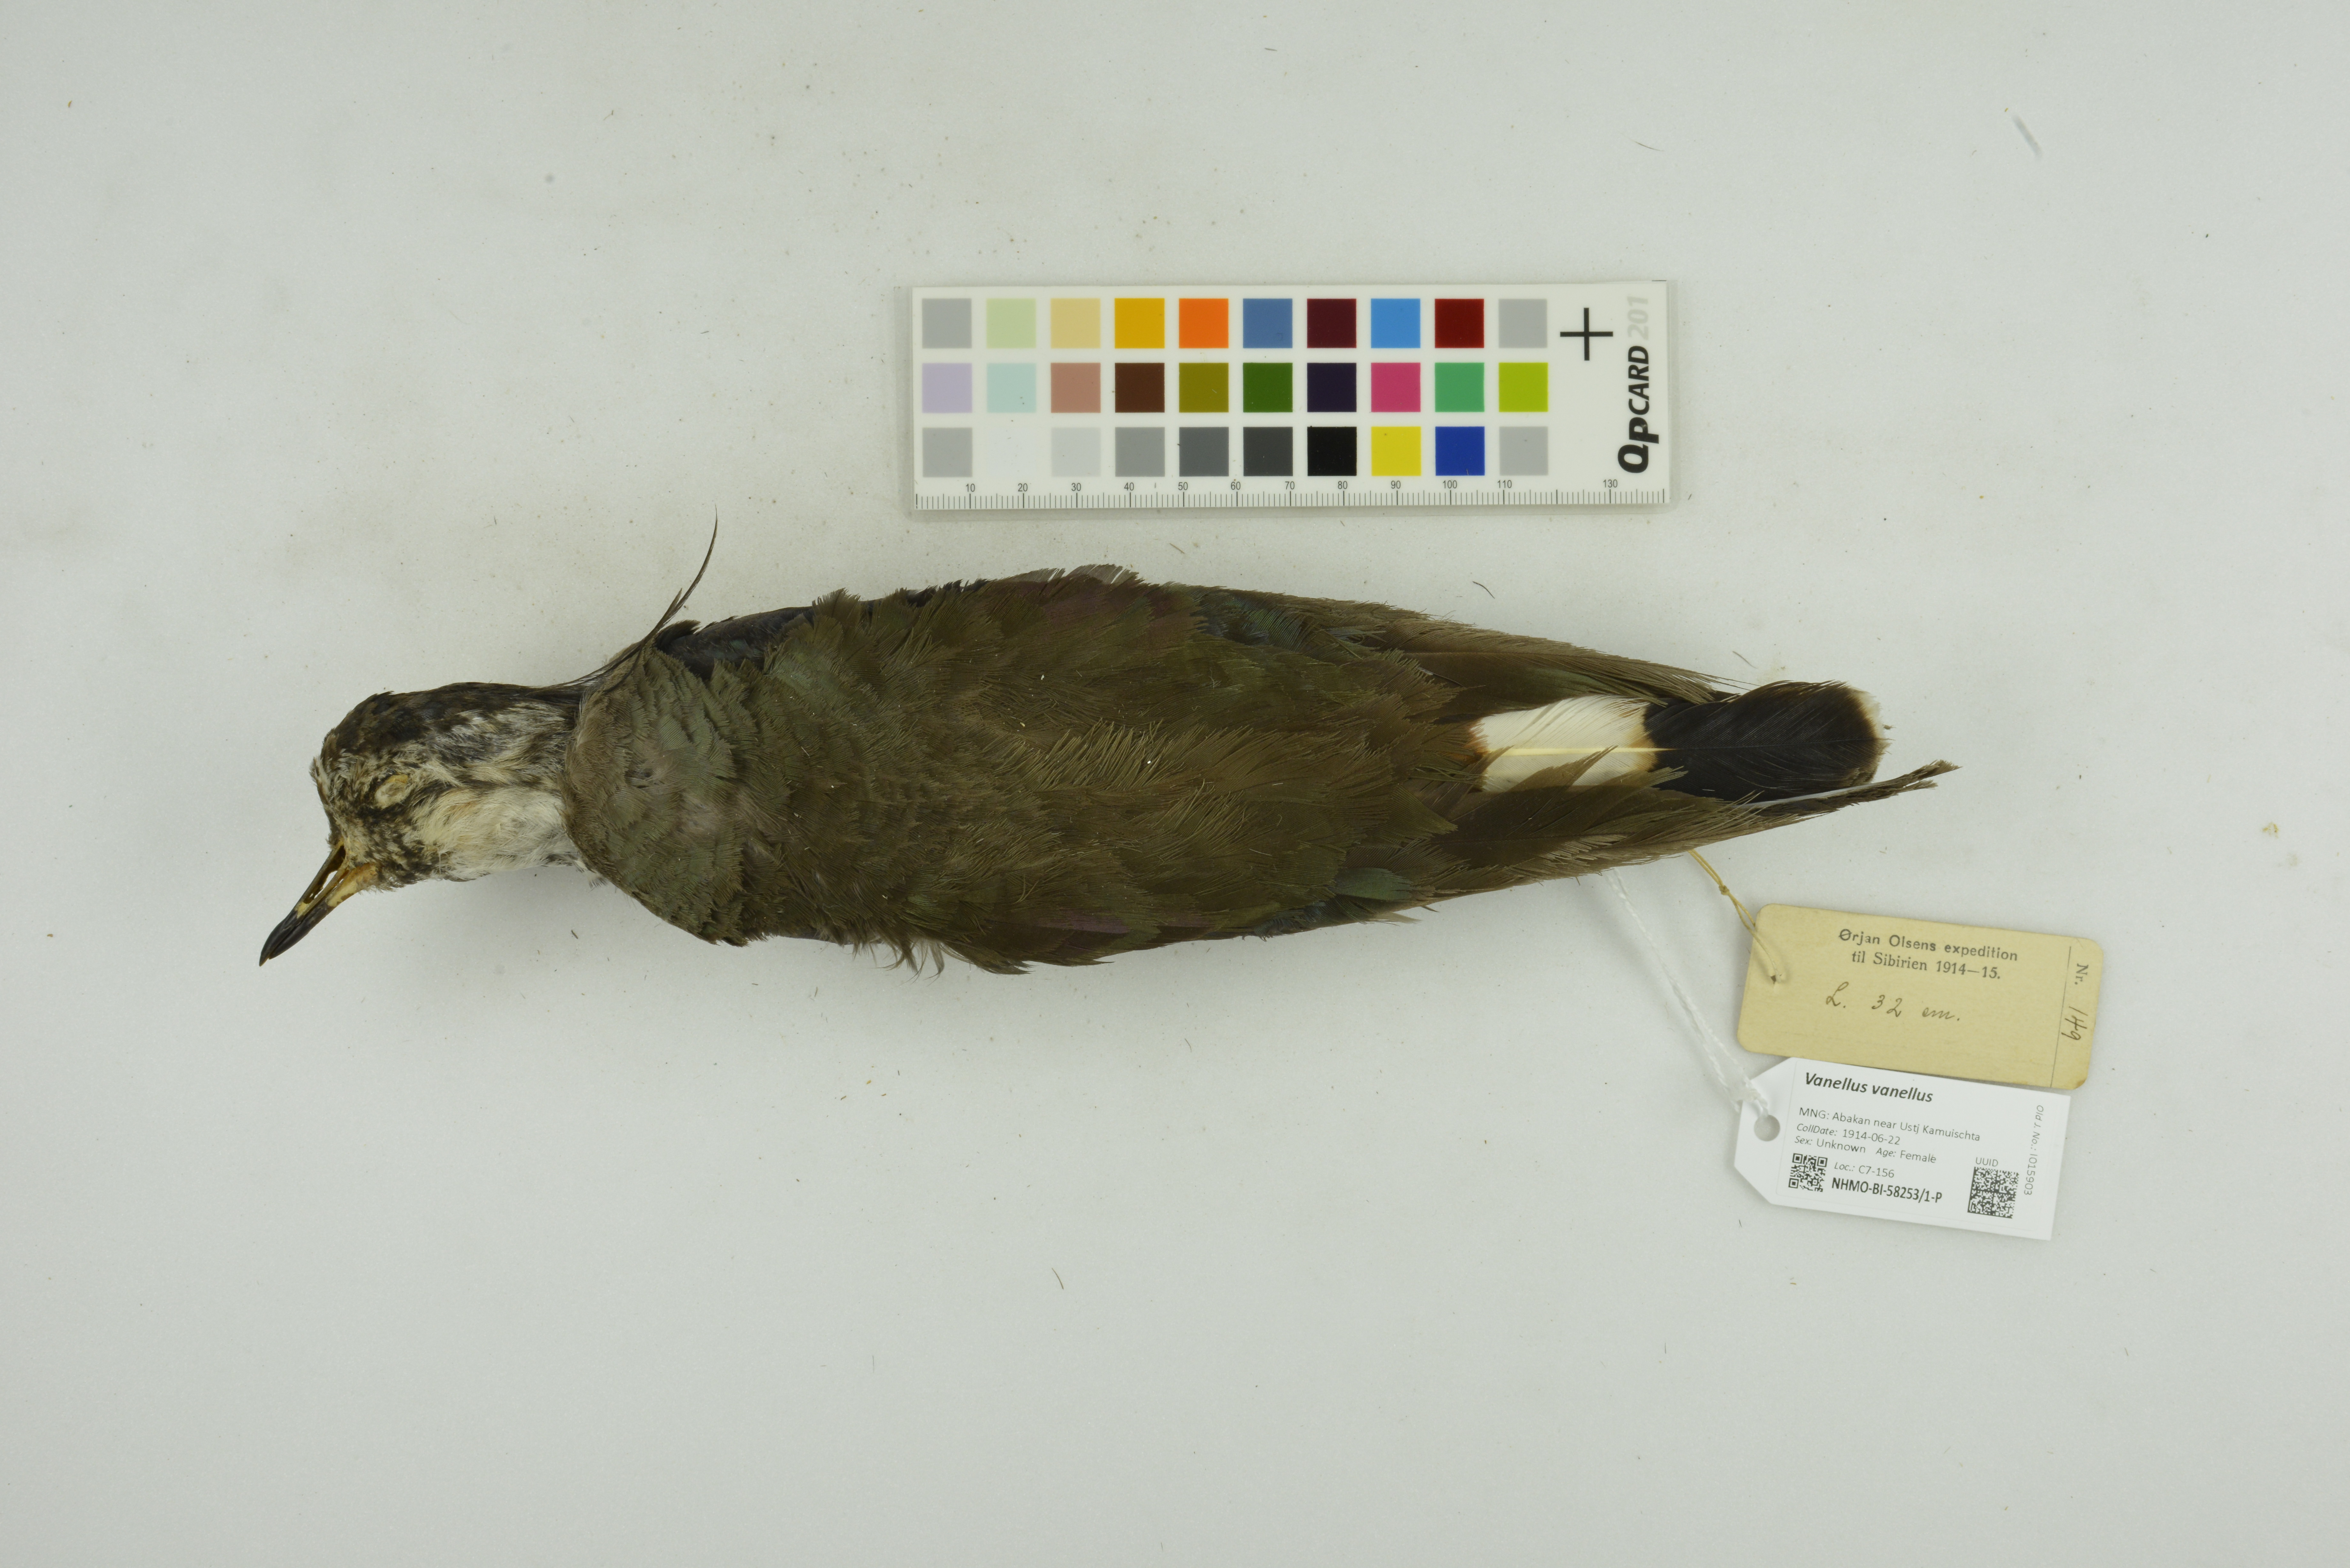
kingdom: Animalia
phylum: Chordata
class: Aves
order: Charadriiformes
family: Charadriidae
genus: Vanellus
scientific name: Vanellus vanellus
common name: Northern lapwing
